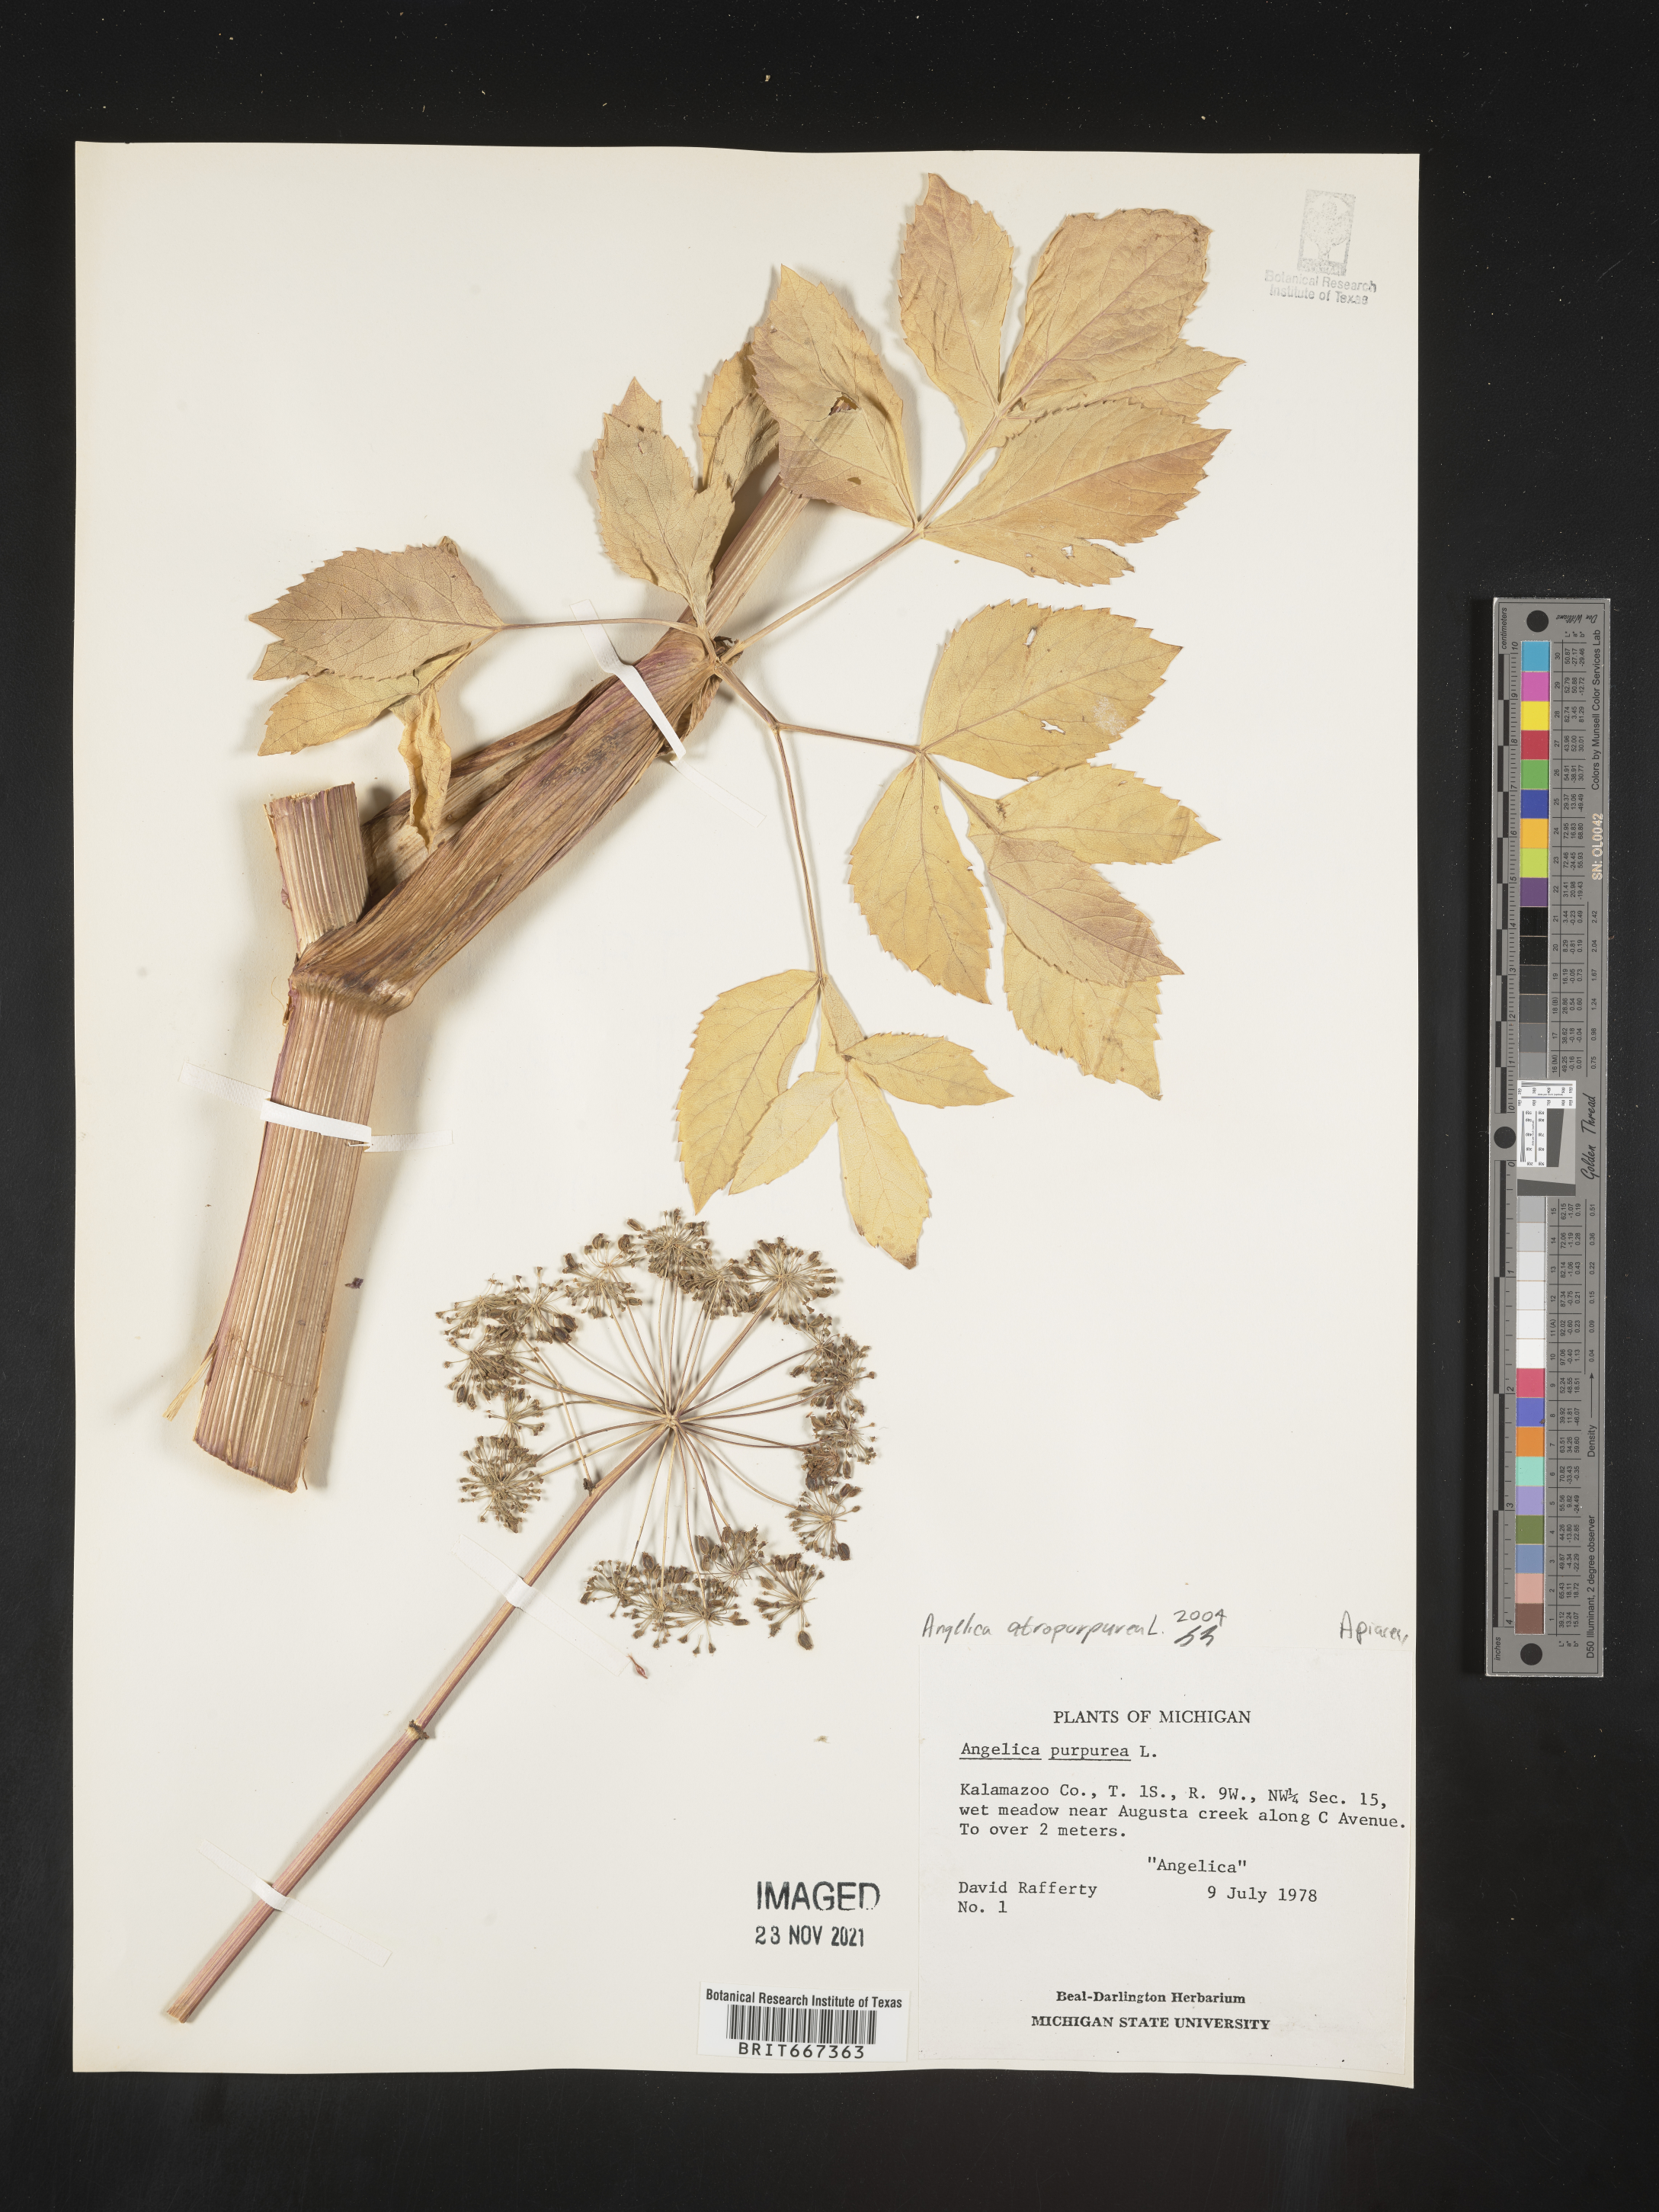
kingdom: Plantae
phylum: Tracheophyta
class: Magnoliopsida
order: Apiales
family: Apiaceae
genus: Angelica
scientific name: Angelica atropurpurea
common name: Great angelica
